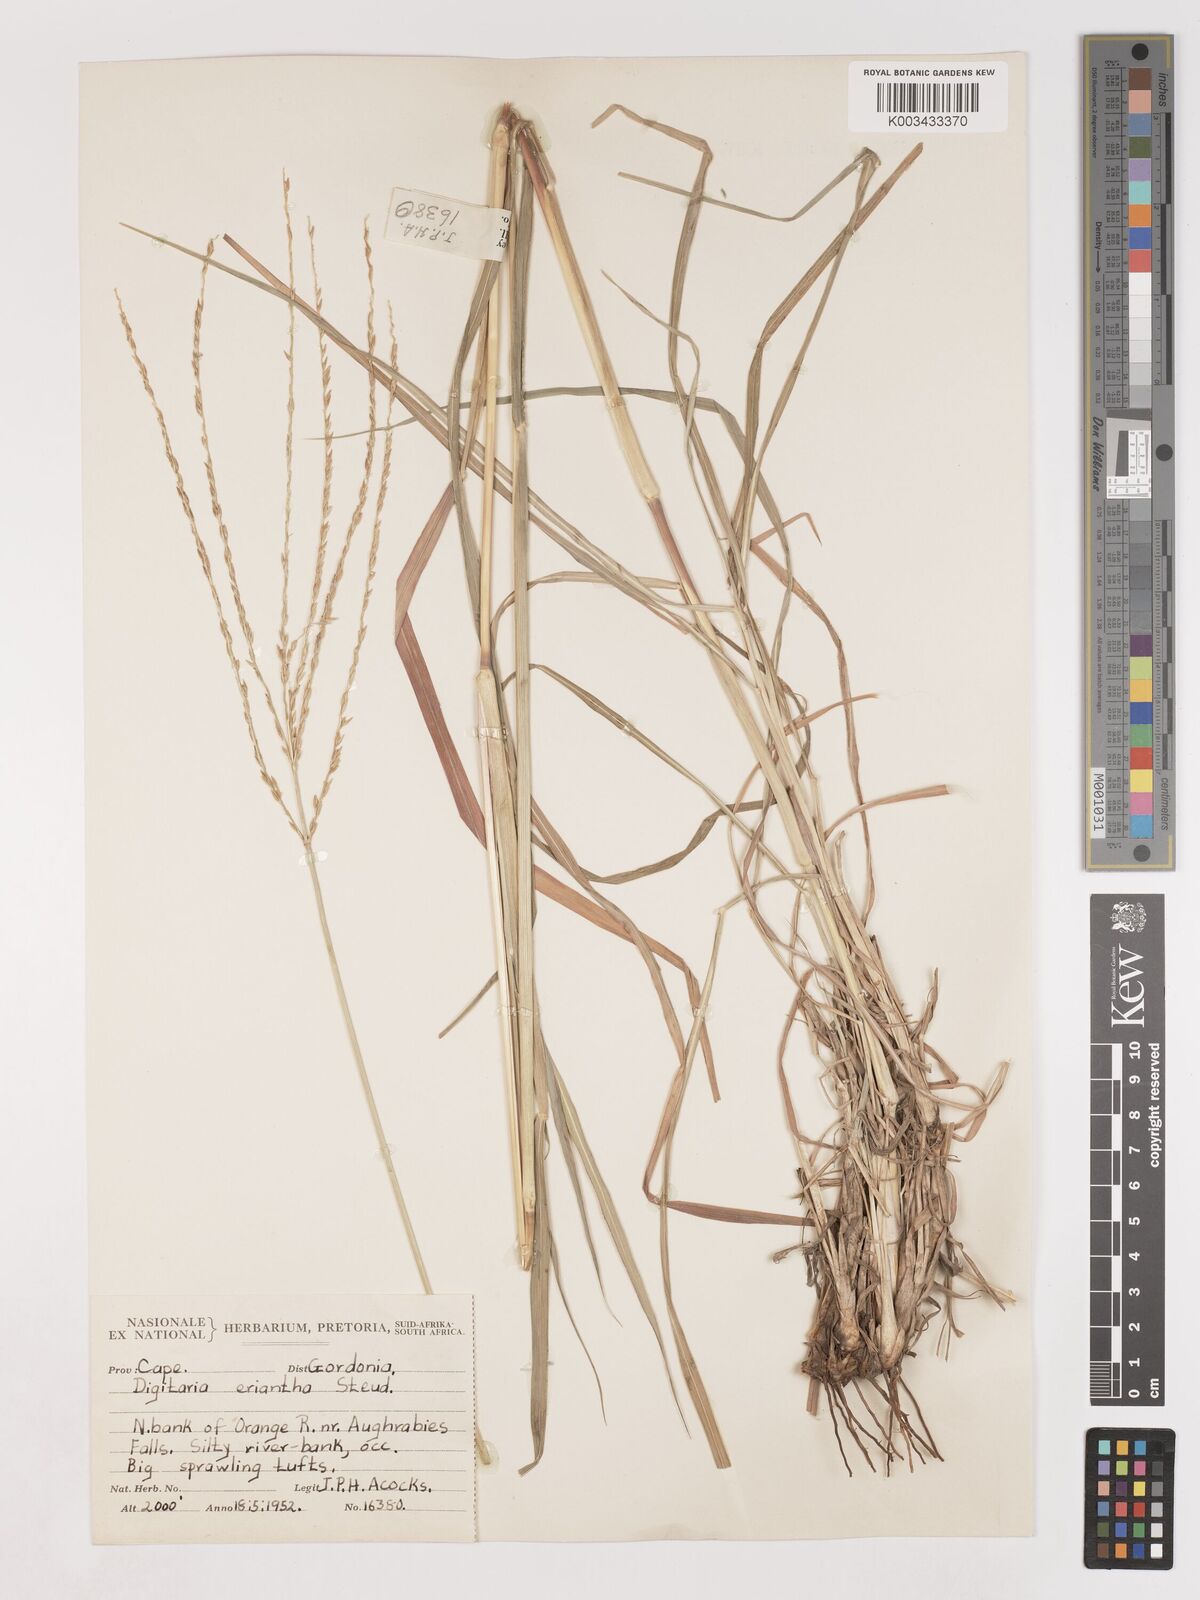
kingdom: Plantae
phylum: Tracheophyta
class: Liliopsida
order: Poales
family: Poaceae
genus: Digitaria
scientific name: Digitaria eriantha
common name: Digitgrass
